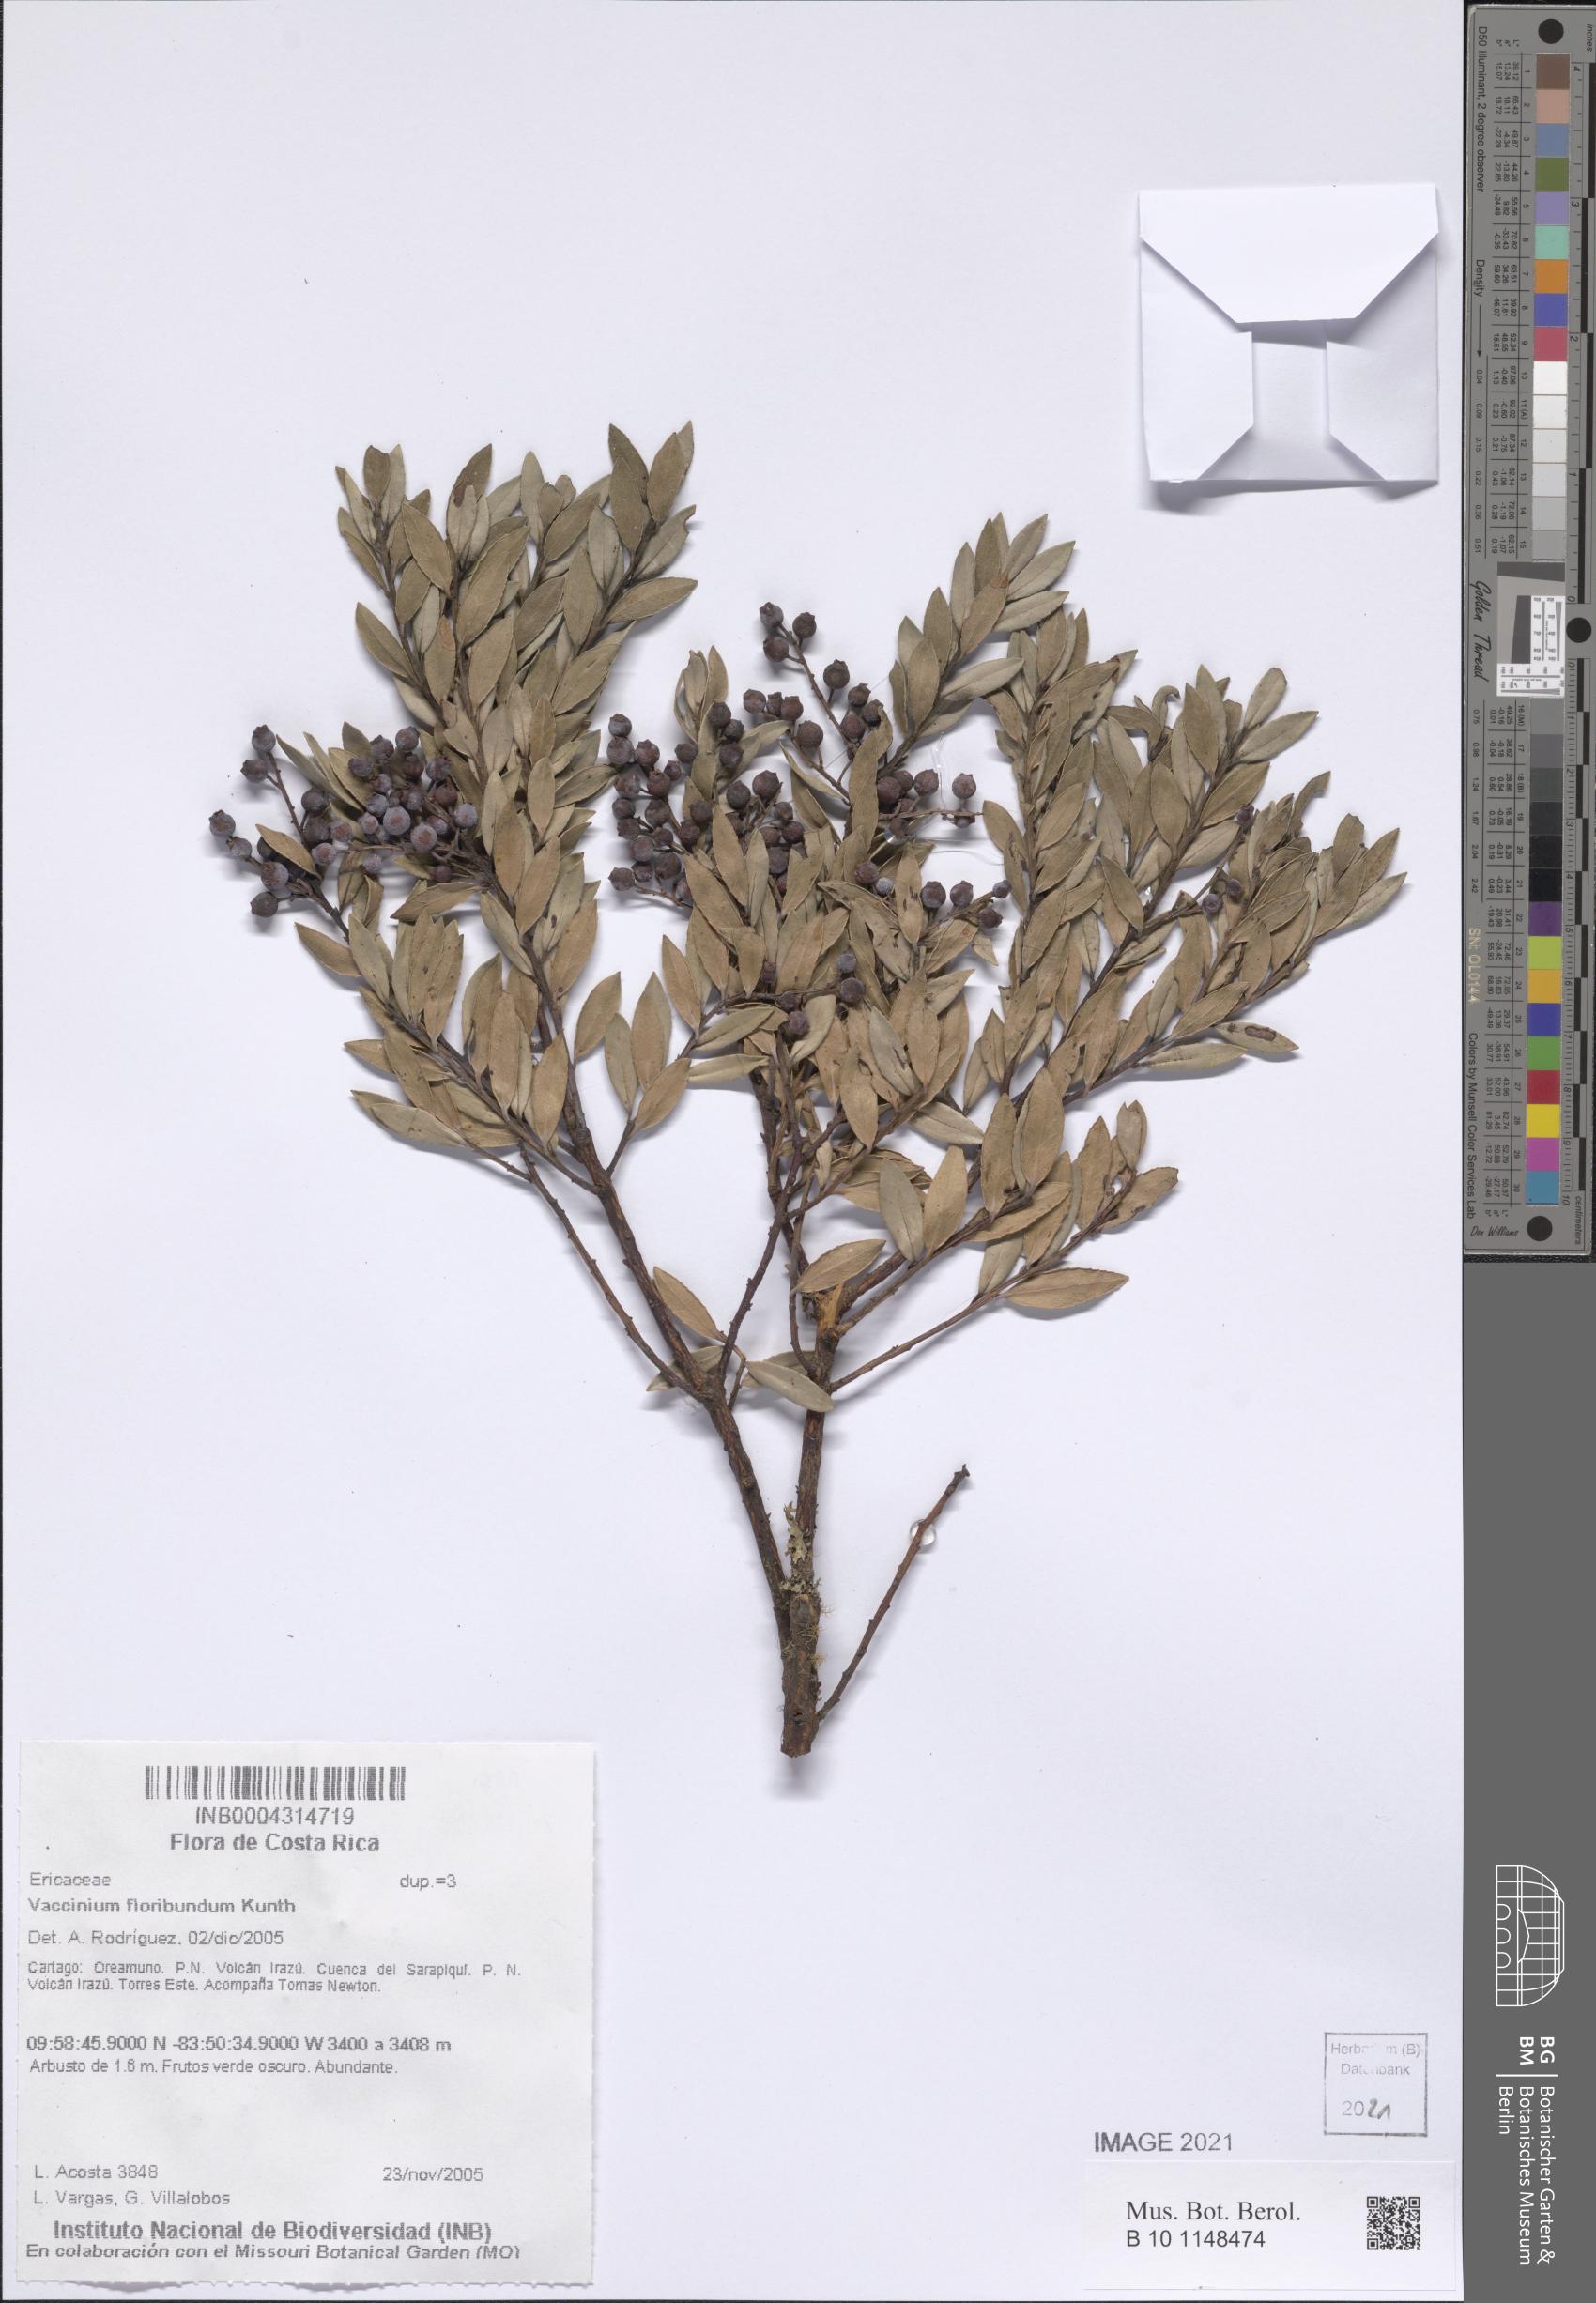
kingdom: Plantae
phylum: Tracheophyta
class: Magnoliopsida
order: Ericales
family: Ericaceae
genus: Vaccinium
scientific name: Vaccinium floribundum
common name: Colombian blueberry
